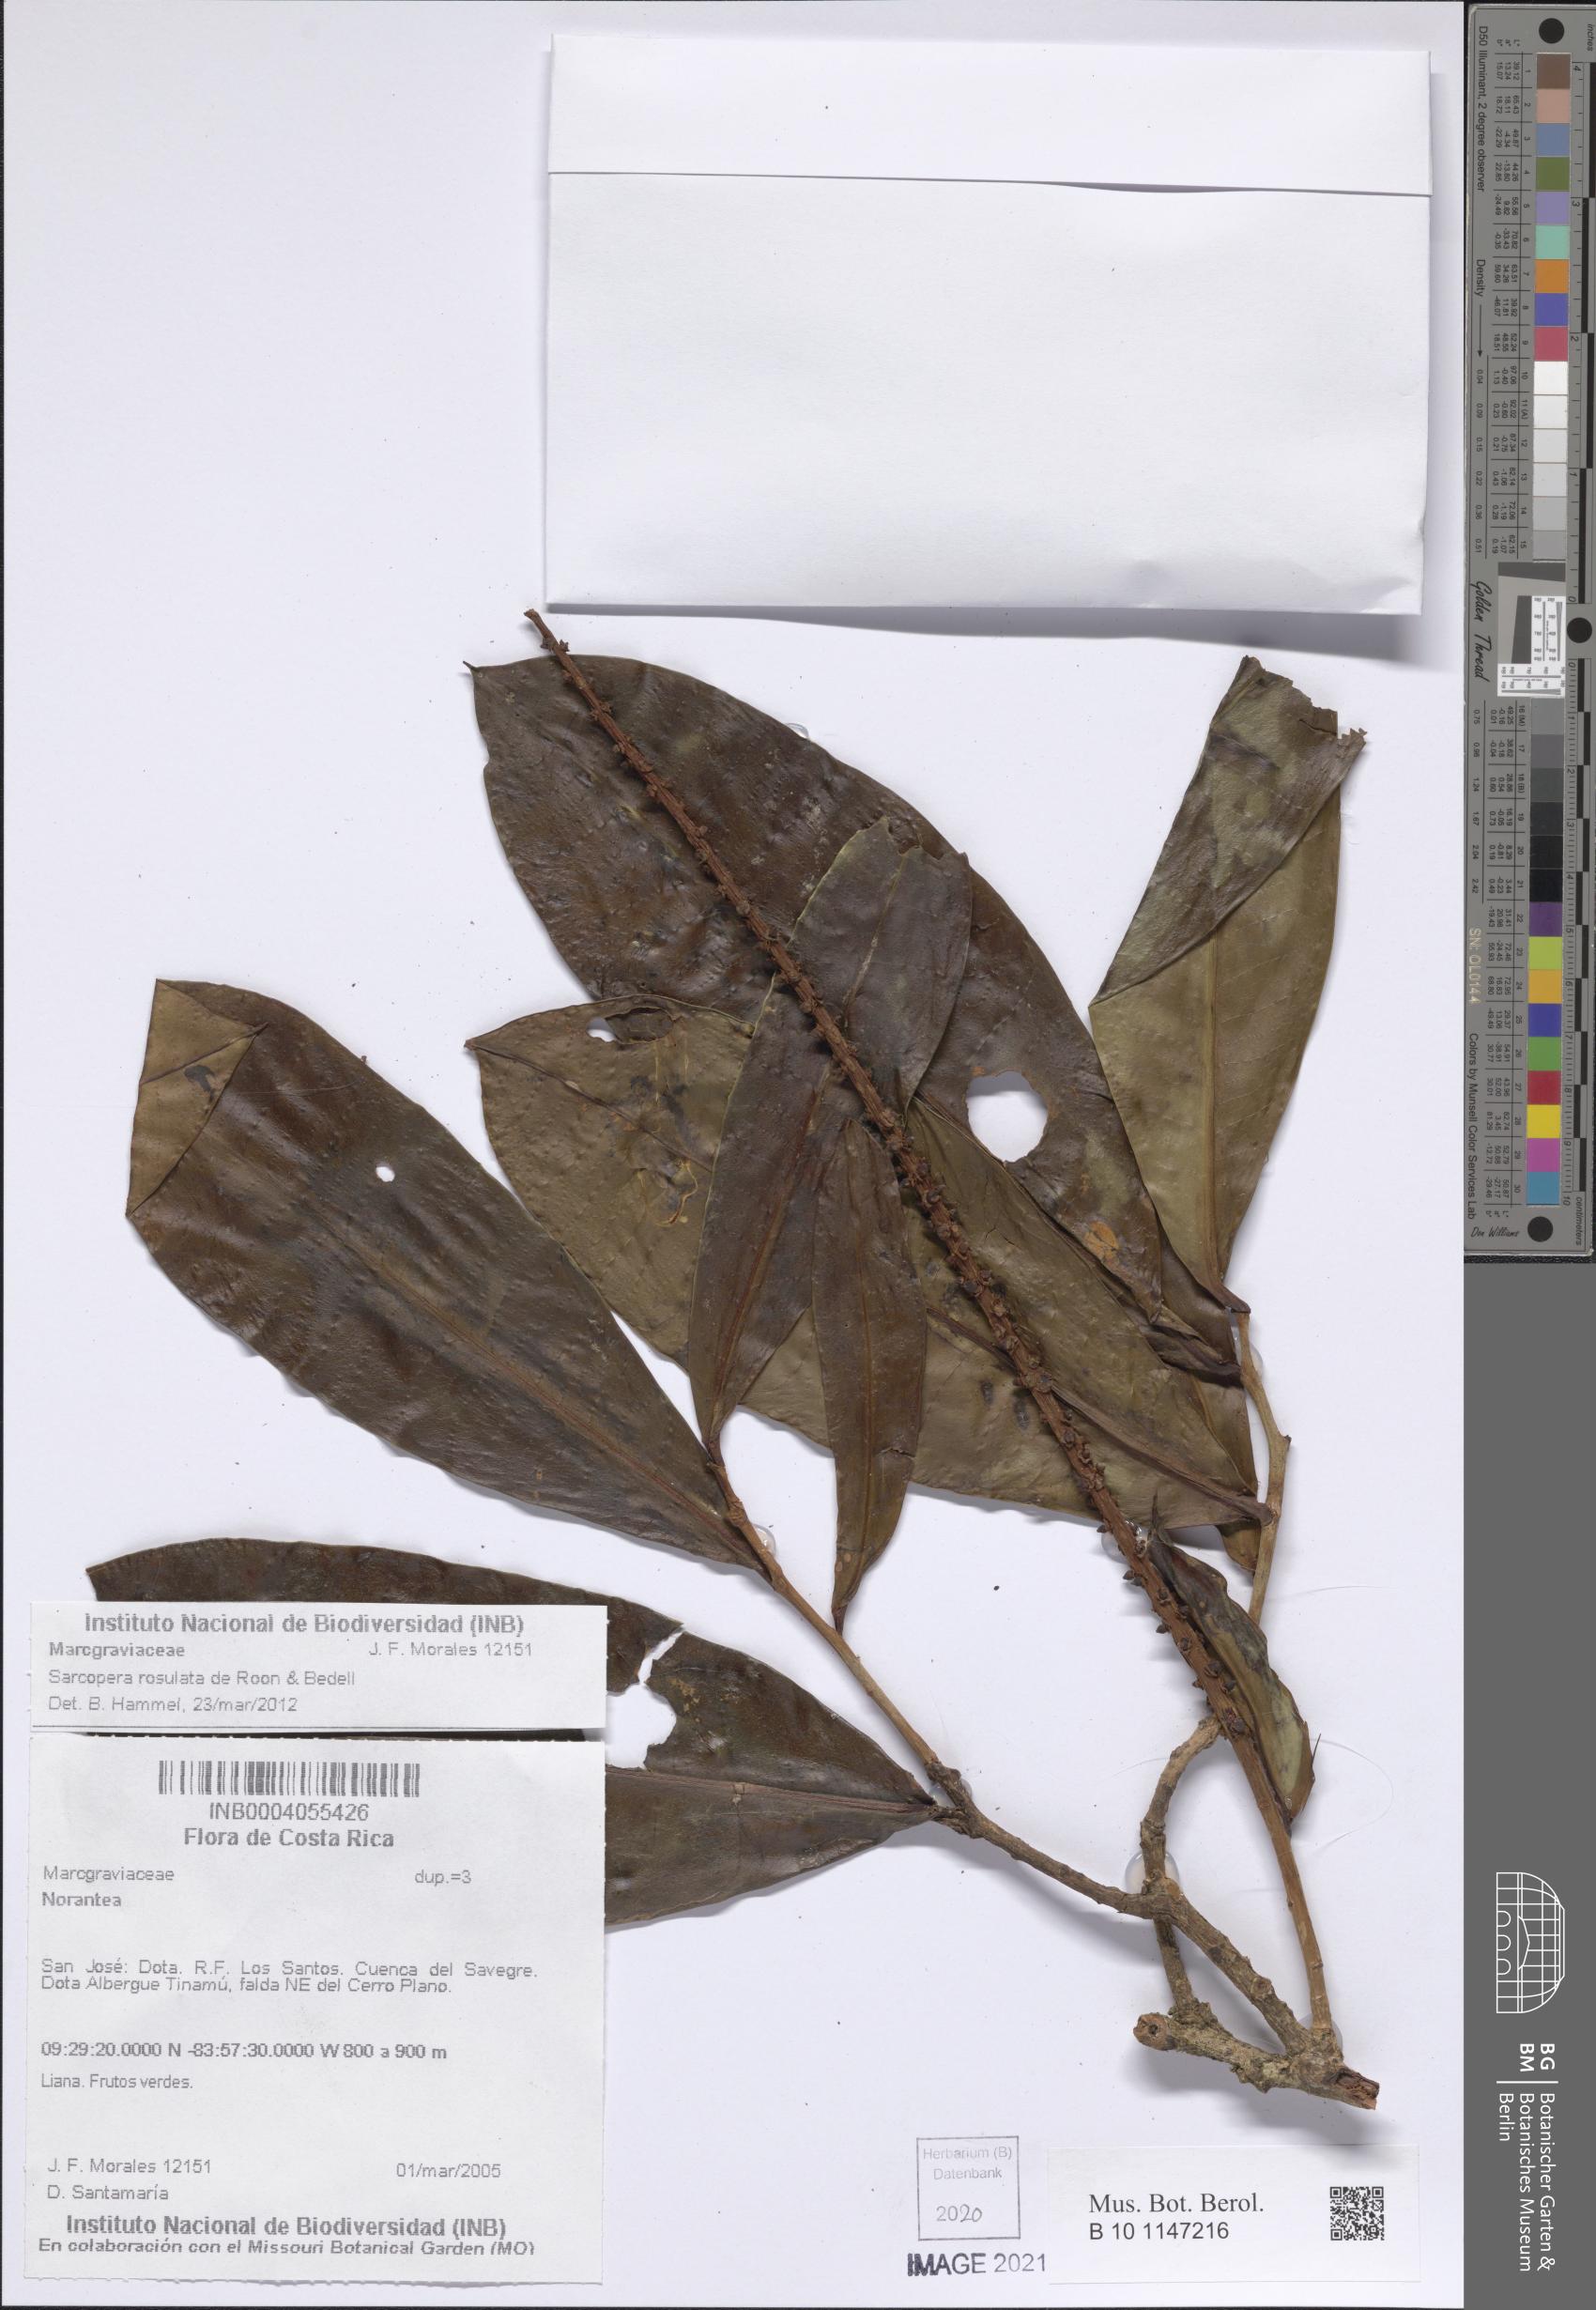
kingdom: Plantae
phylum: Tracheophyta
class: Magnoliopsida
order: Ericales
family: Marcgraviaceae
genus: Sarcopera
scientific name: Sarcopera rosulata
